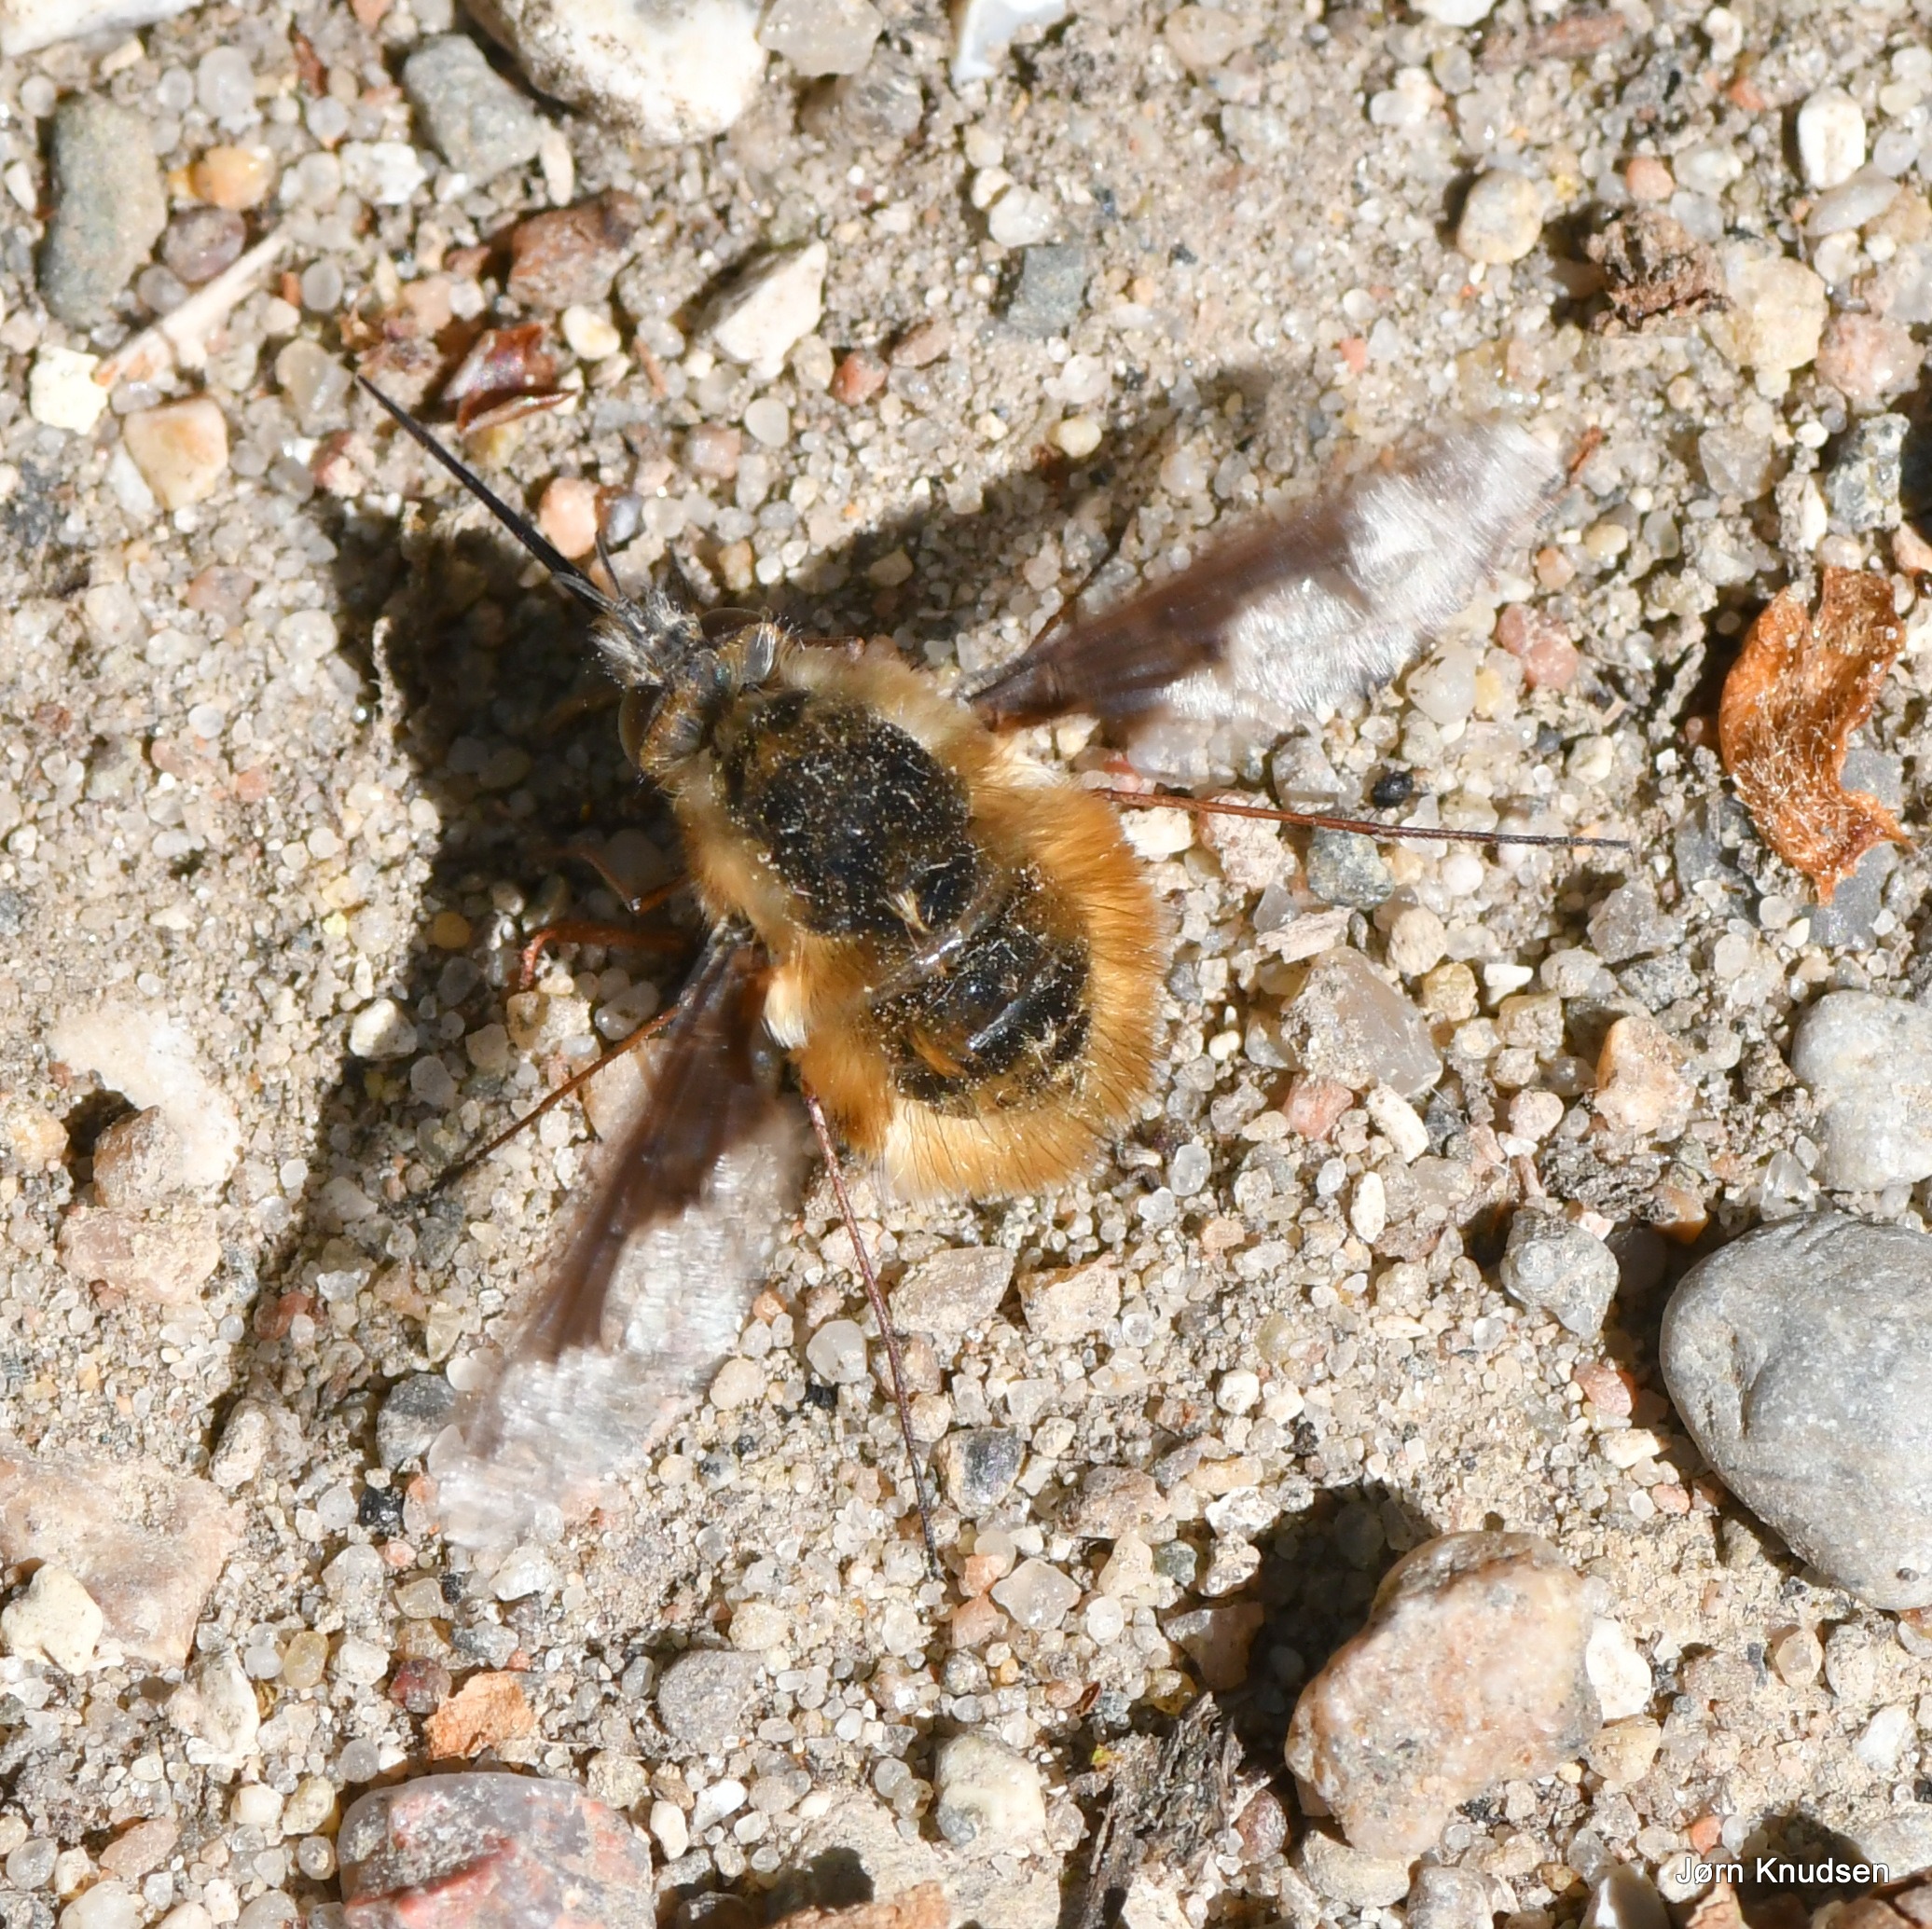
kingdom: Animalia
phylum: Arthropoda
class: Insecta
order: Diptera
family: Bombyliidae
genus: Bombylius
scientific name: Bombylius major
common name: Stor humleflue
